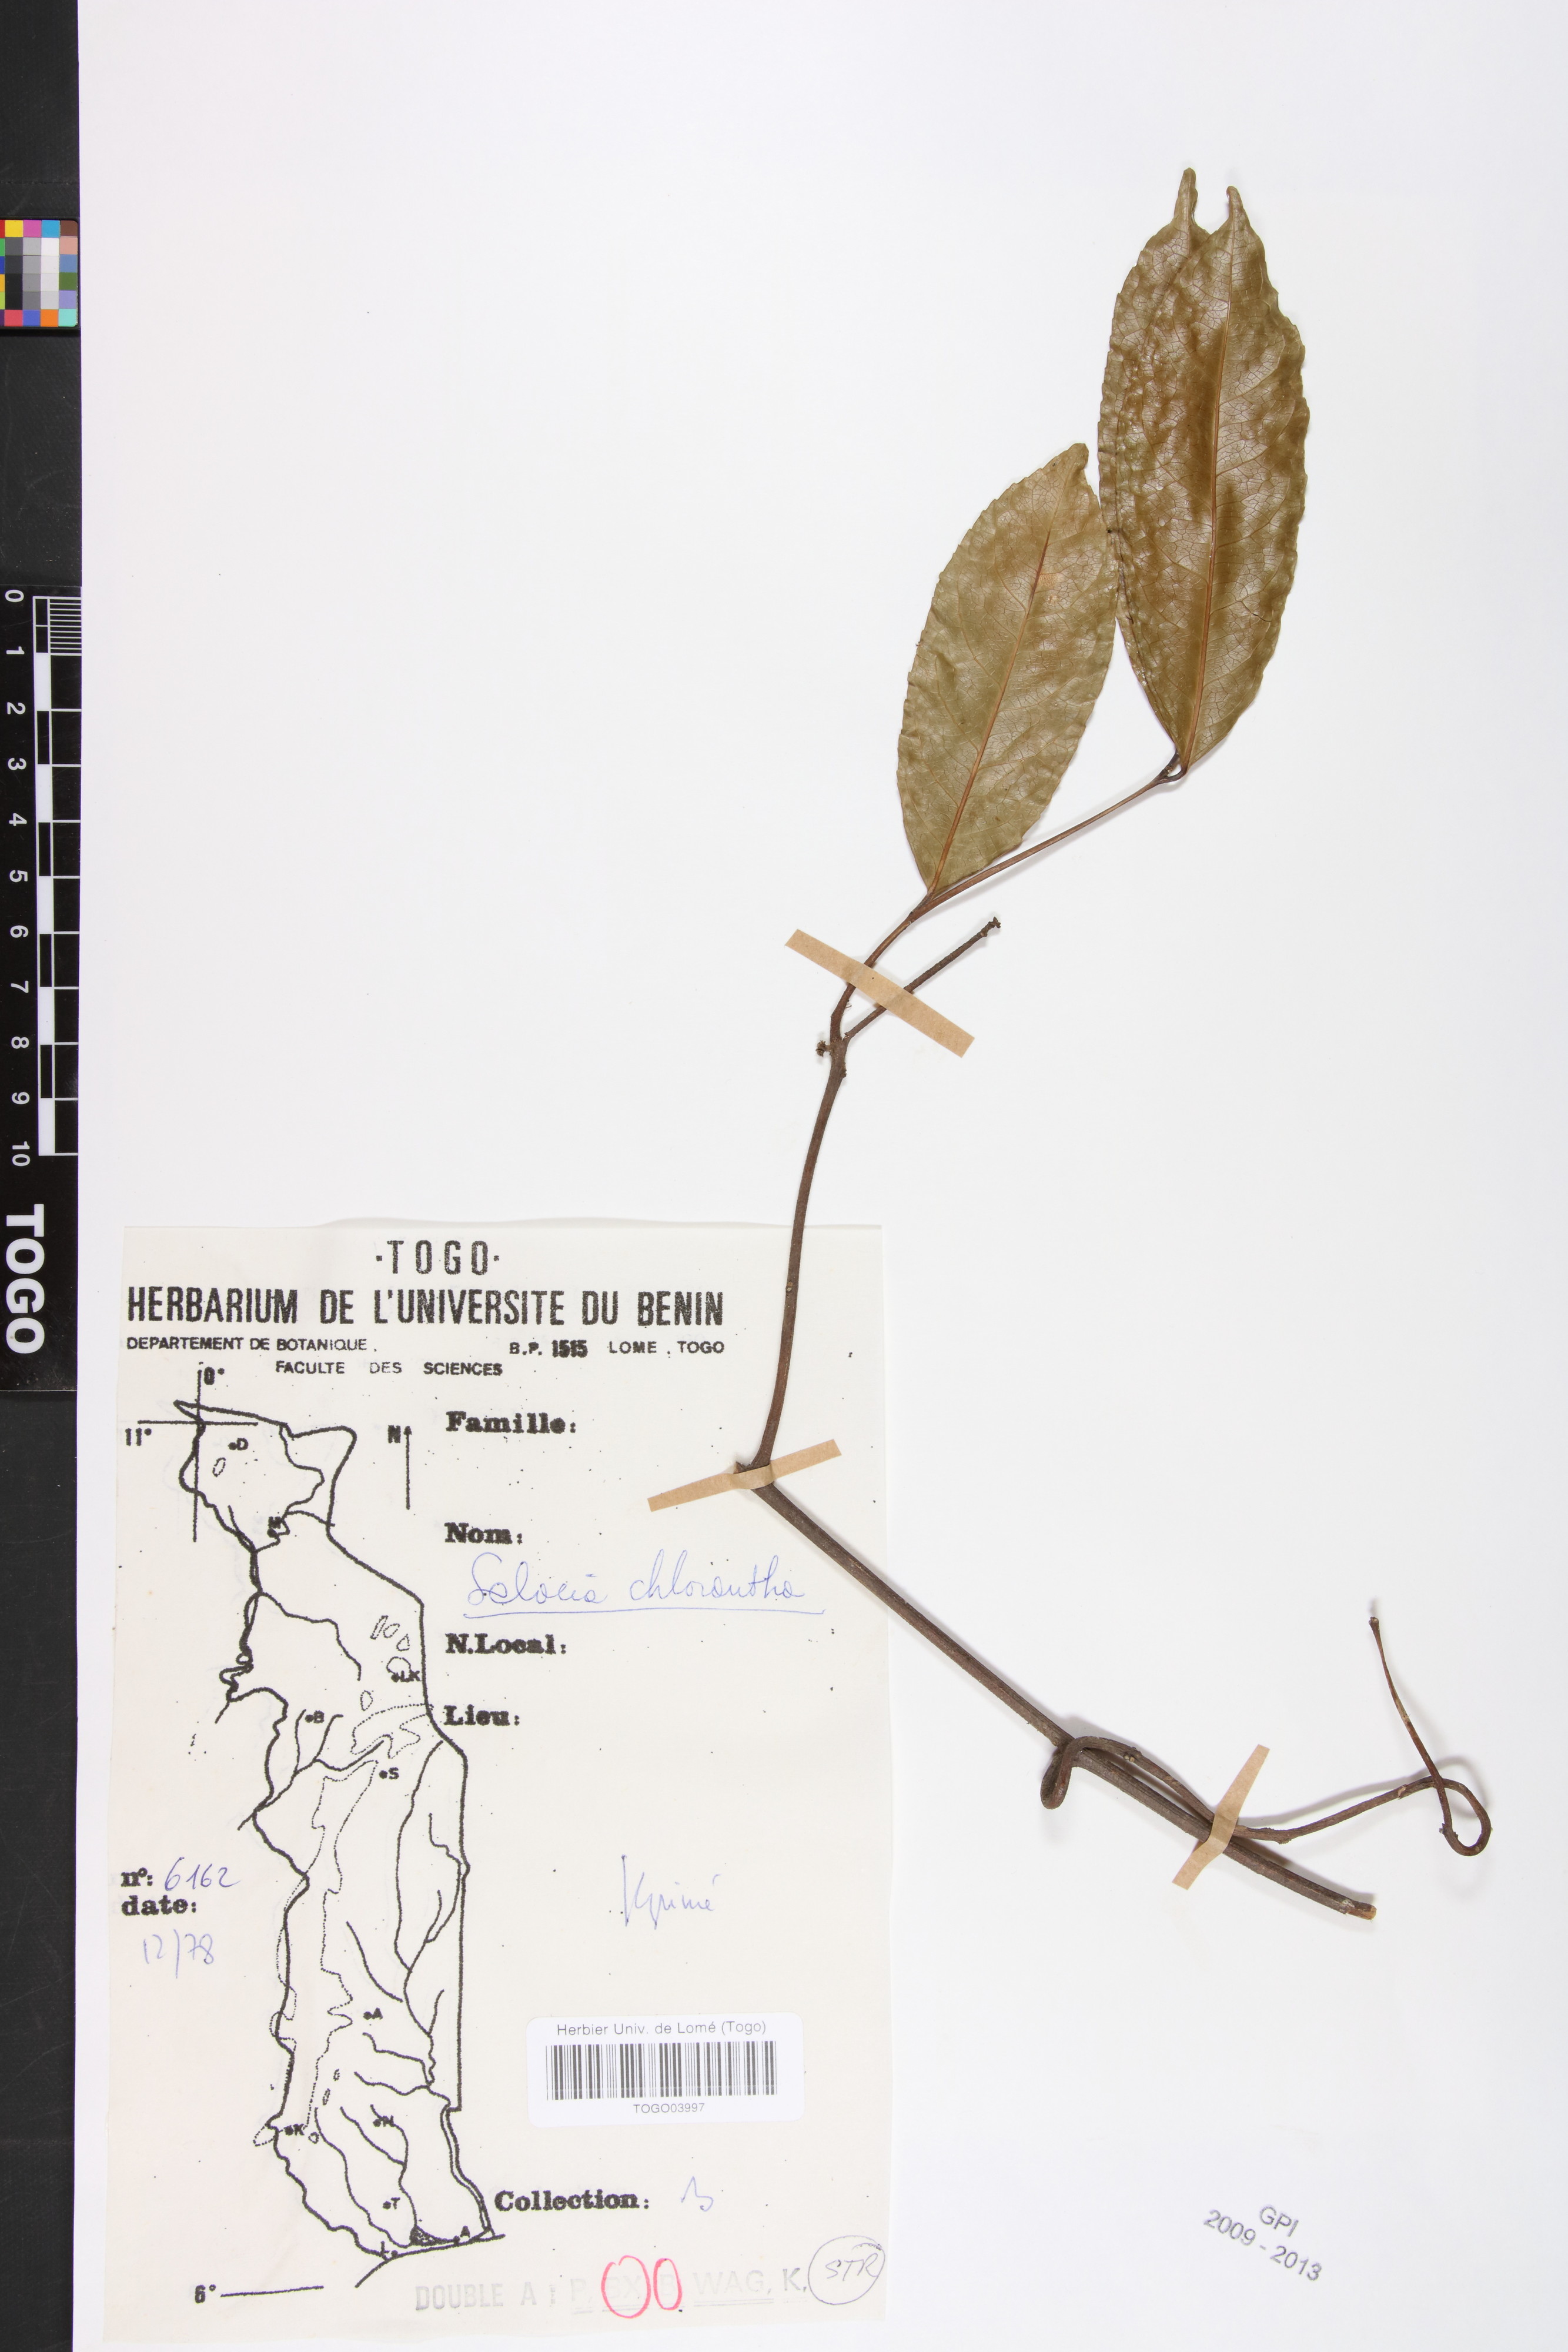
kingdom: Plantae
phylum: Tracheophyta
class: Magnoliopsida
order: Celastrales
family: Celastraceae
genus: Salacia
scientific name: Salacia chlorantha
